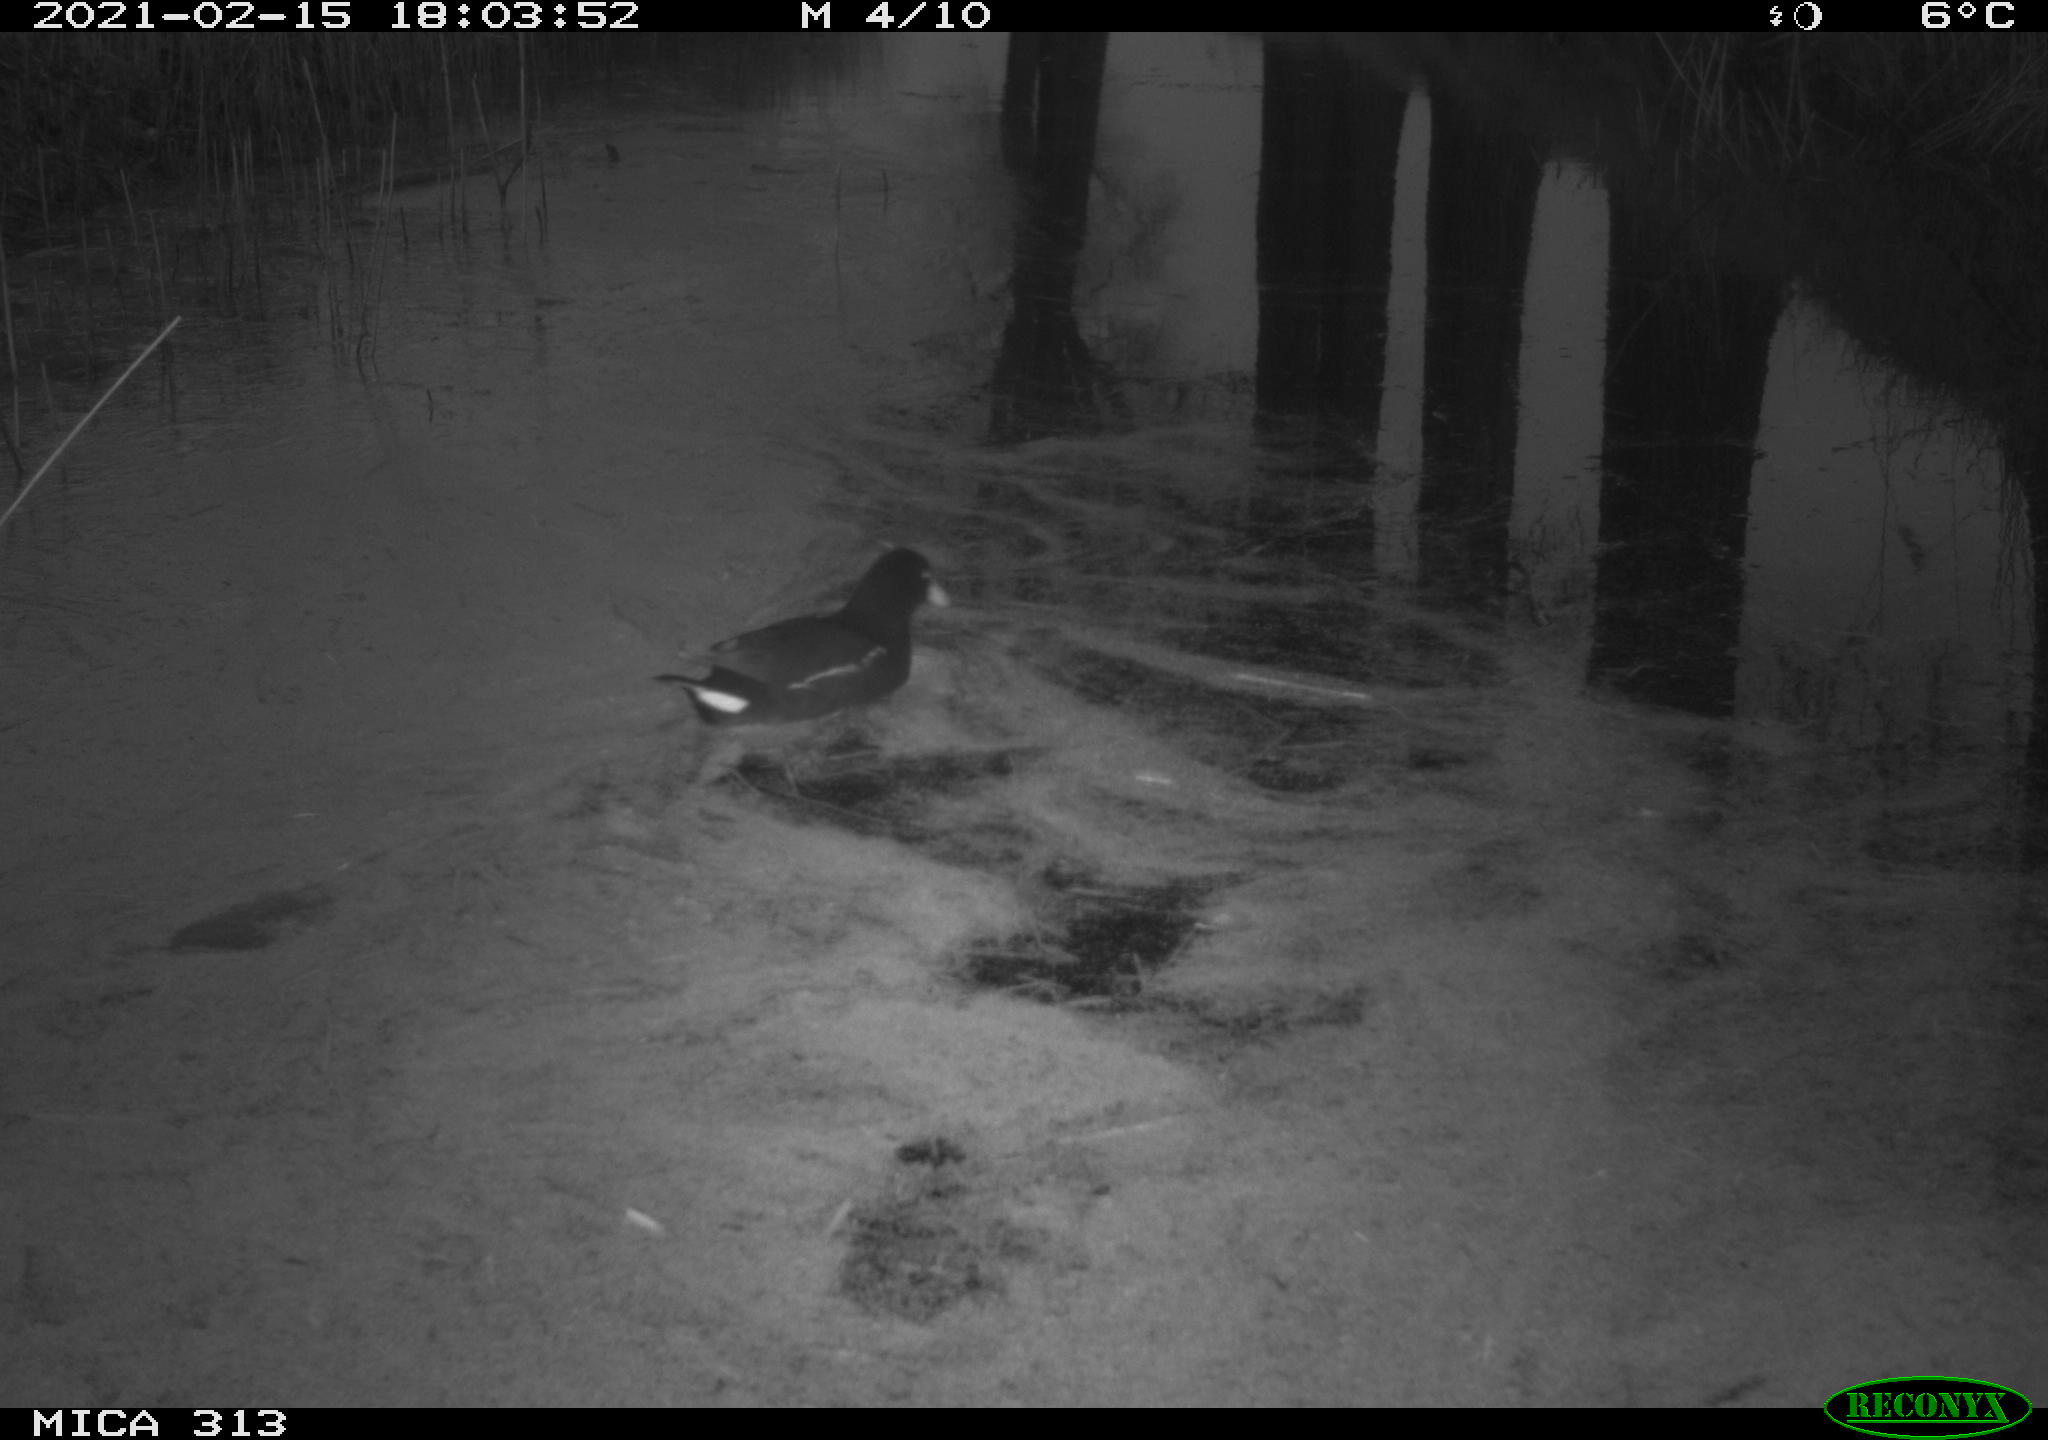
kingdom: Animalia
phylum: Chordata
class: Aves
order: Gruiformes
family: Rallidae
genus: Gallinula
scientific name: Gallinula chloropus
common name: Common moorhen
